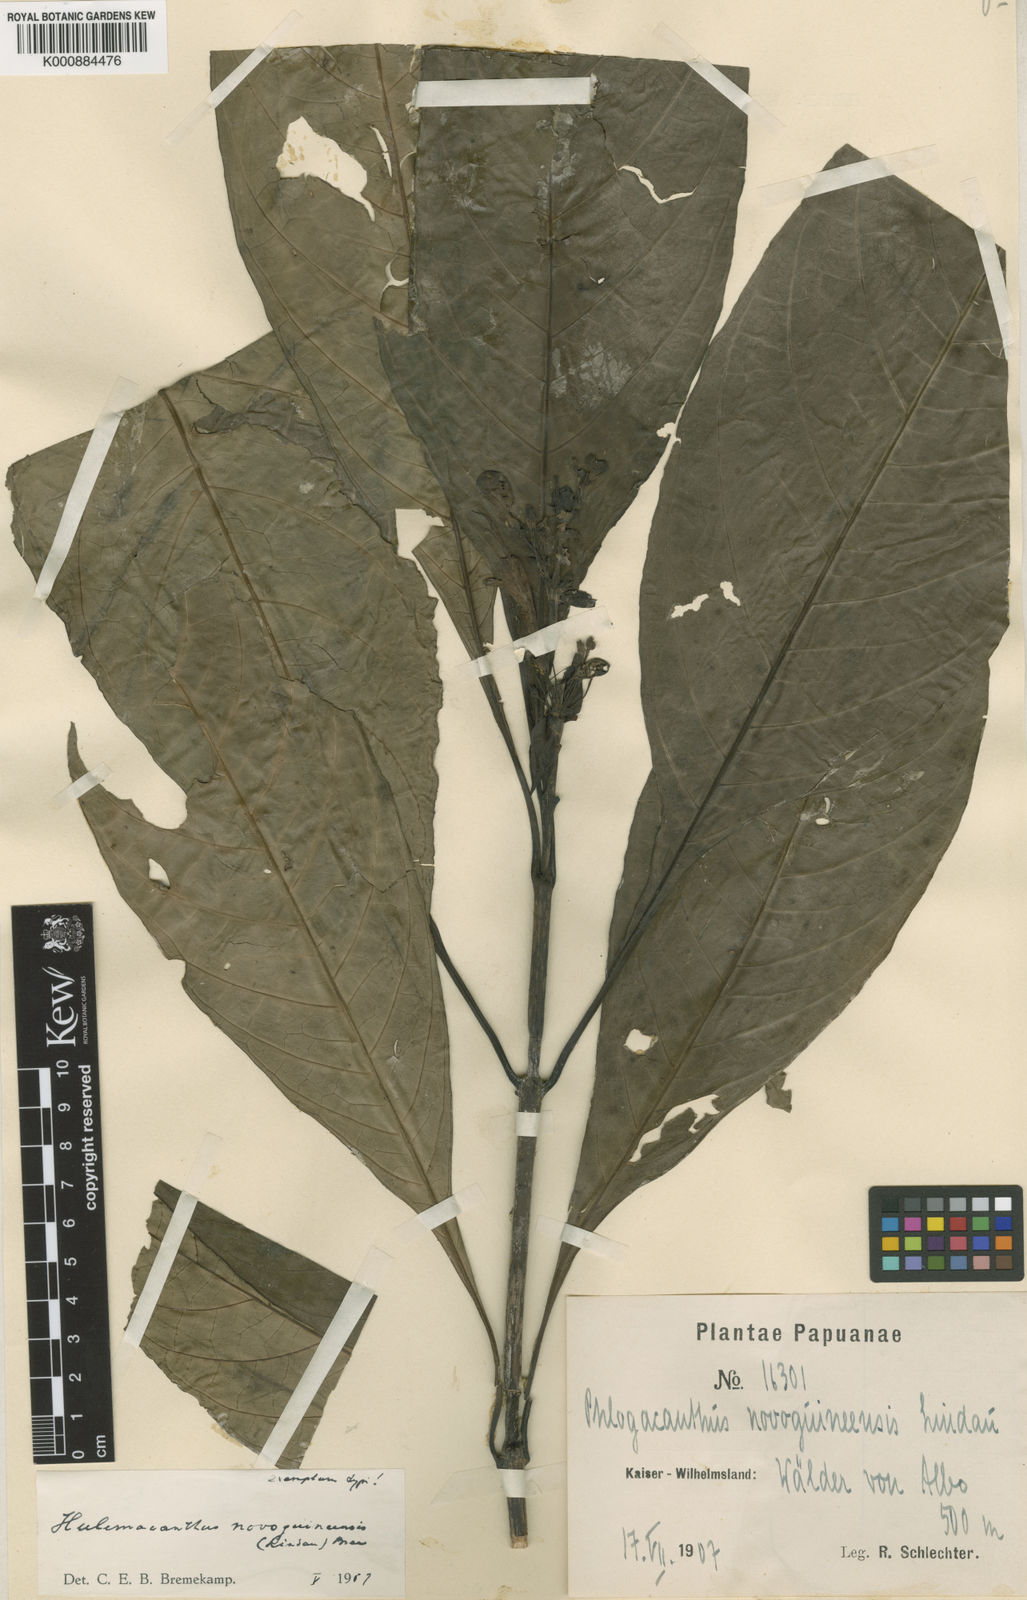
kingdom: Plantae
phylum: Tracheophyta
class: Magnoliopsida
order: Lamiales
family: Acanthaceae
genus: Hulemacanthus
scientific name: Hulemacanthus novoguineensis
